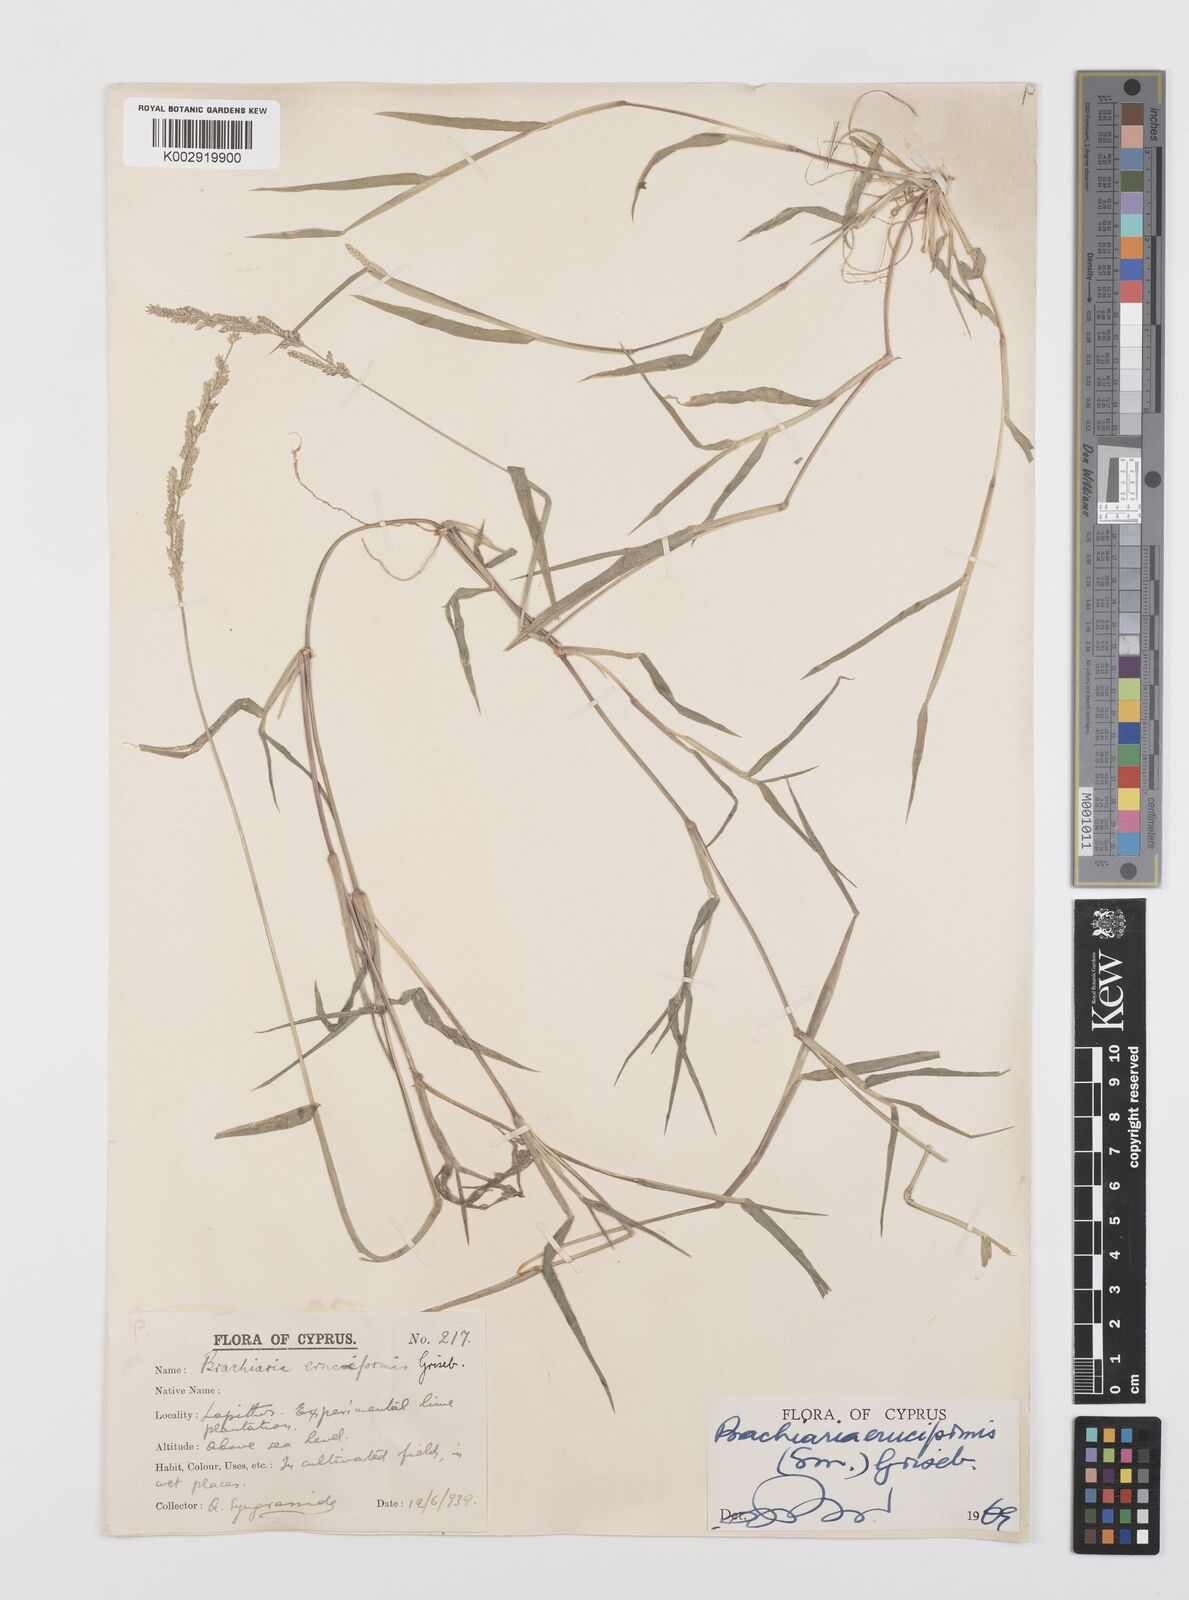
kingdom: Plantae
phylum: Tracheophyta
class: Liliopsida
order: Poales
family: Poaceae
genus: Moorochloa
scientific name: Moorochloa eruciformis
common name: Sweet signalgrass
